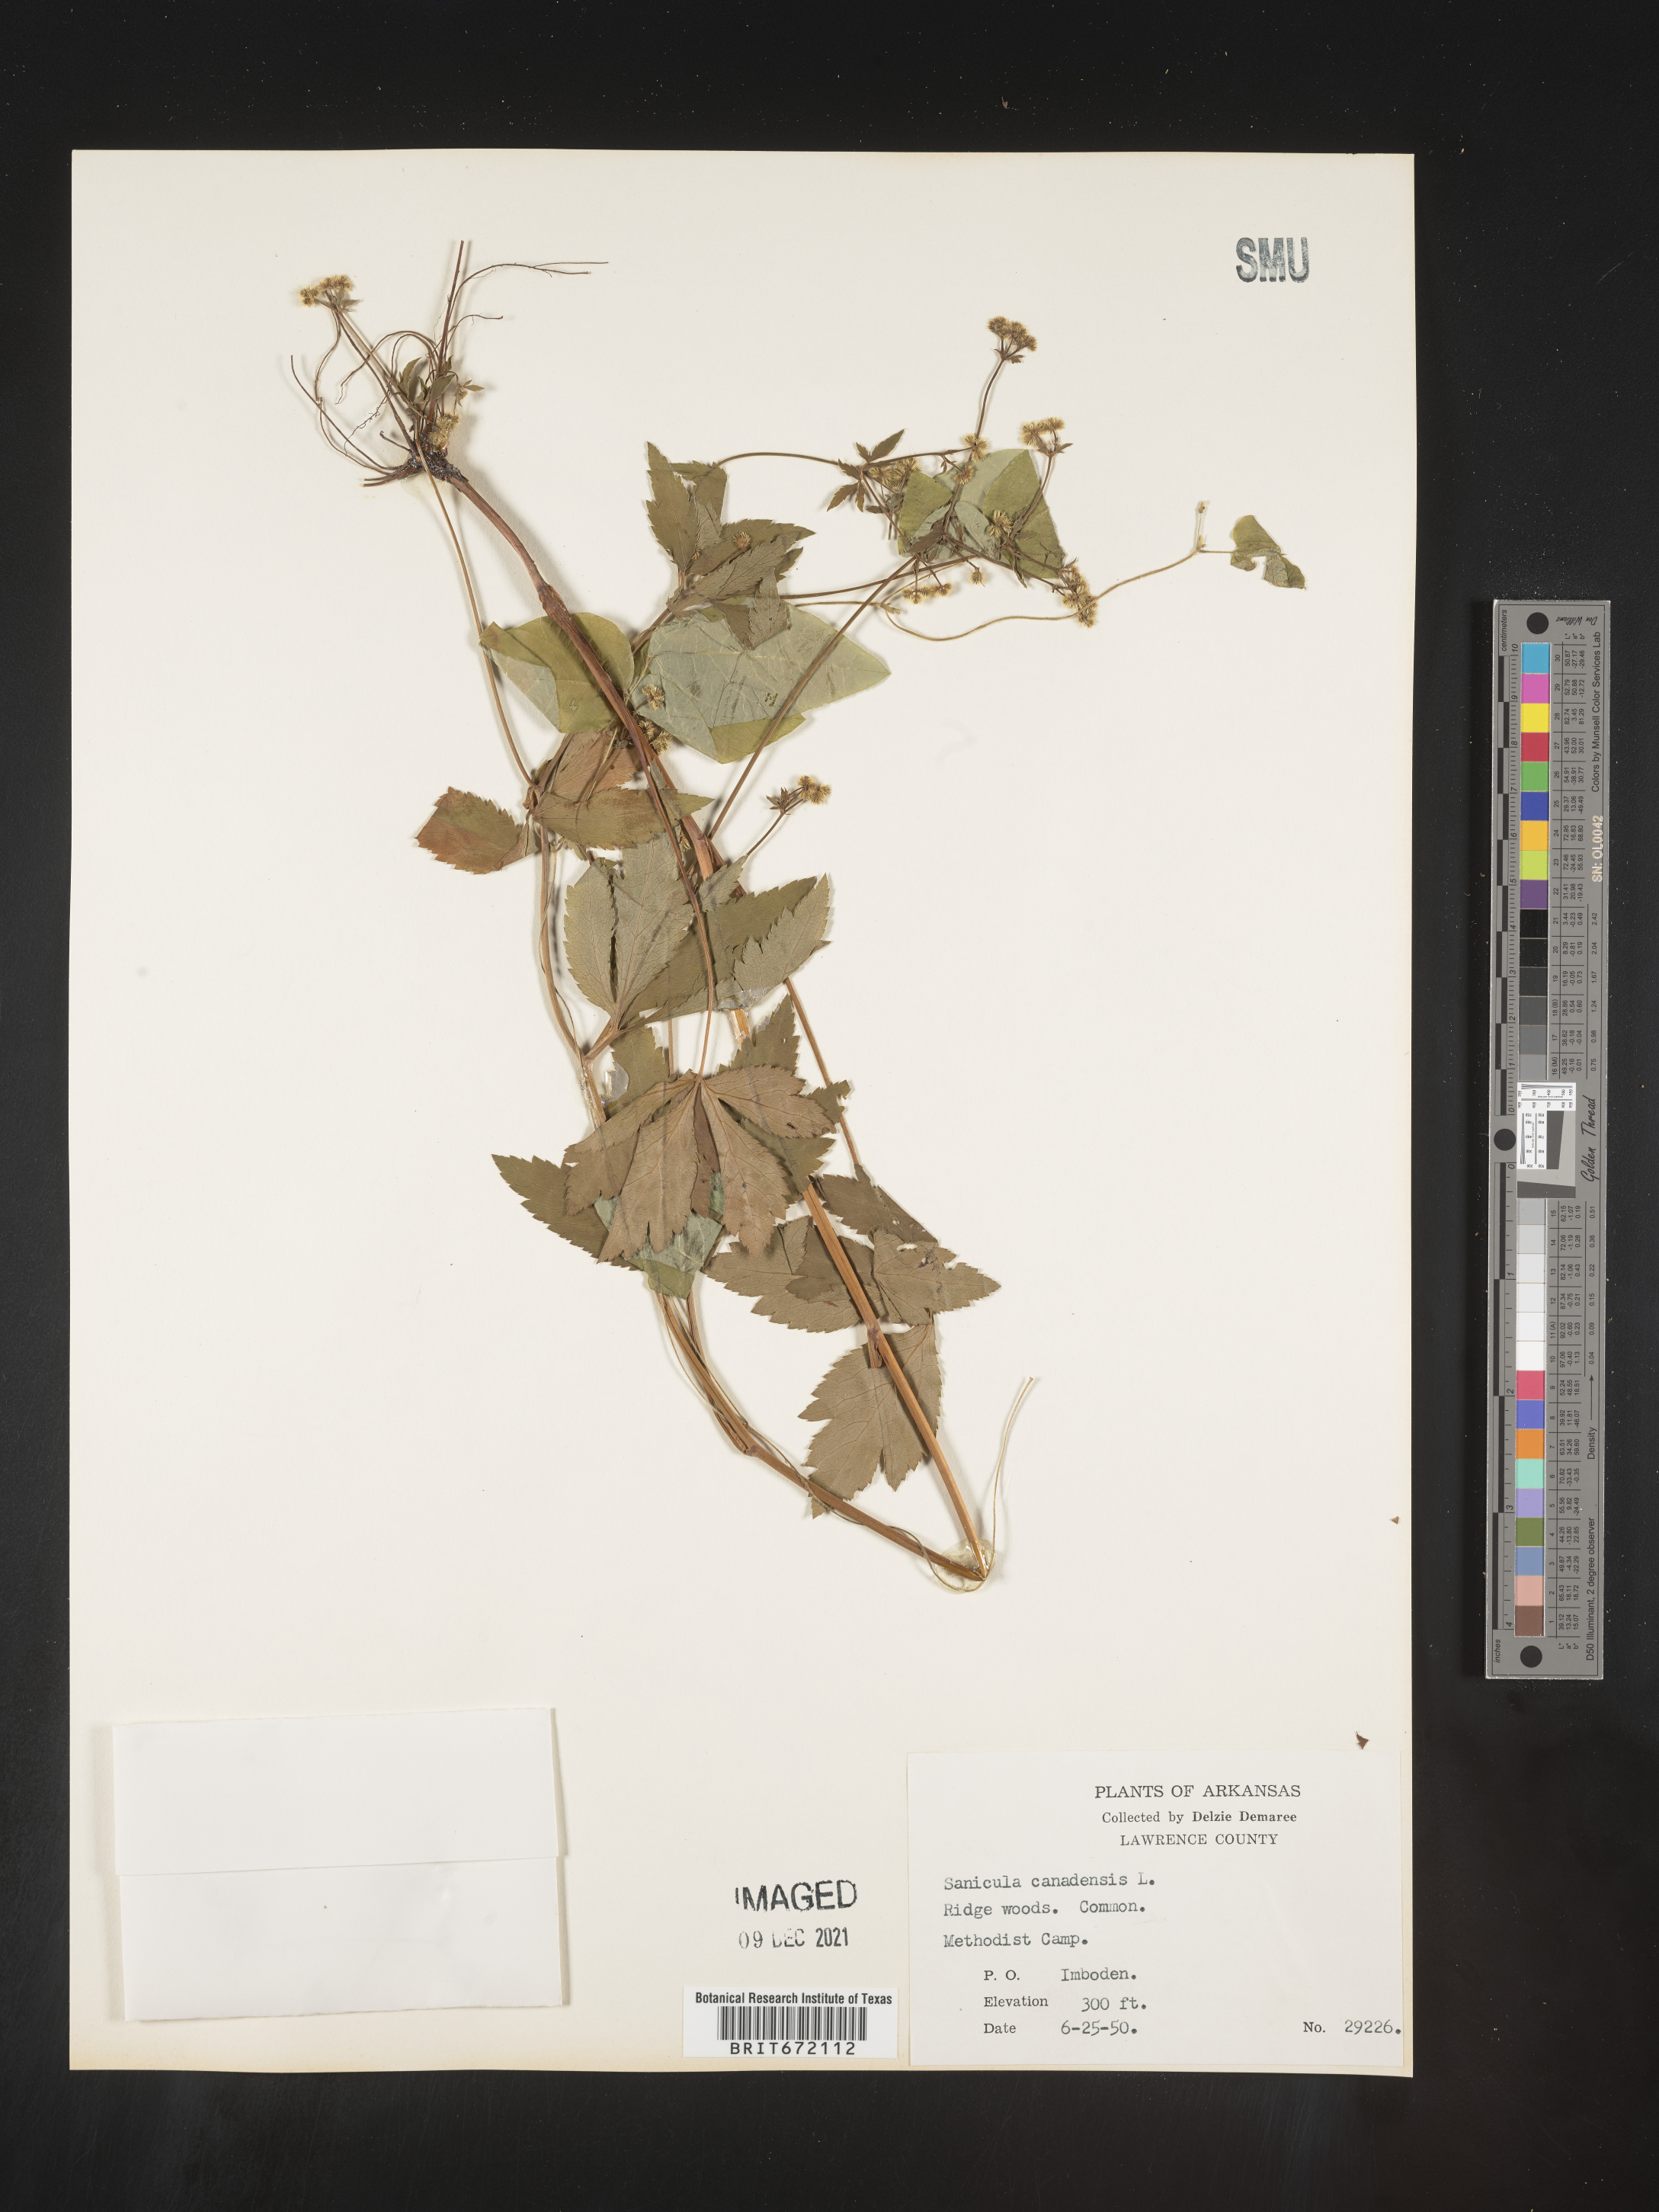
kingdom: Plantae
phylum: Tracheophyta
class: Magnoliopsida
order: Apiales
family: Apiaceae
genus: Sanicula
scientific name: Sanicula canadensis
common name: Canada sanicle
